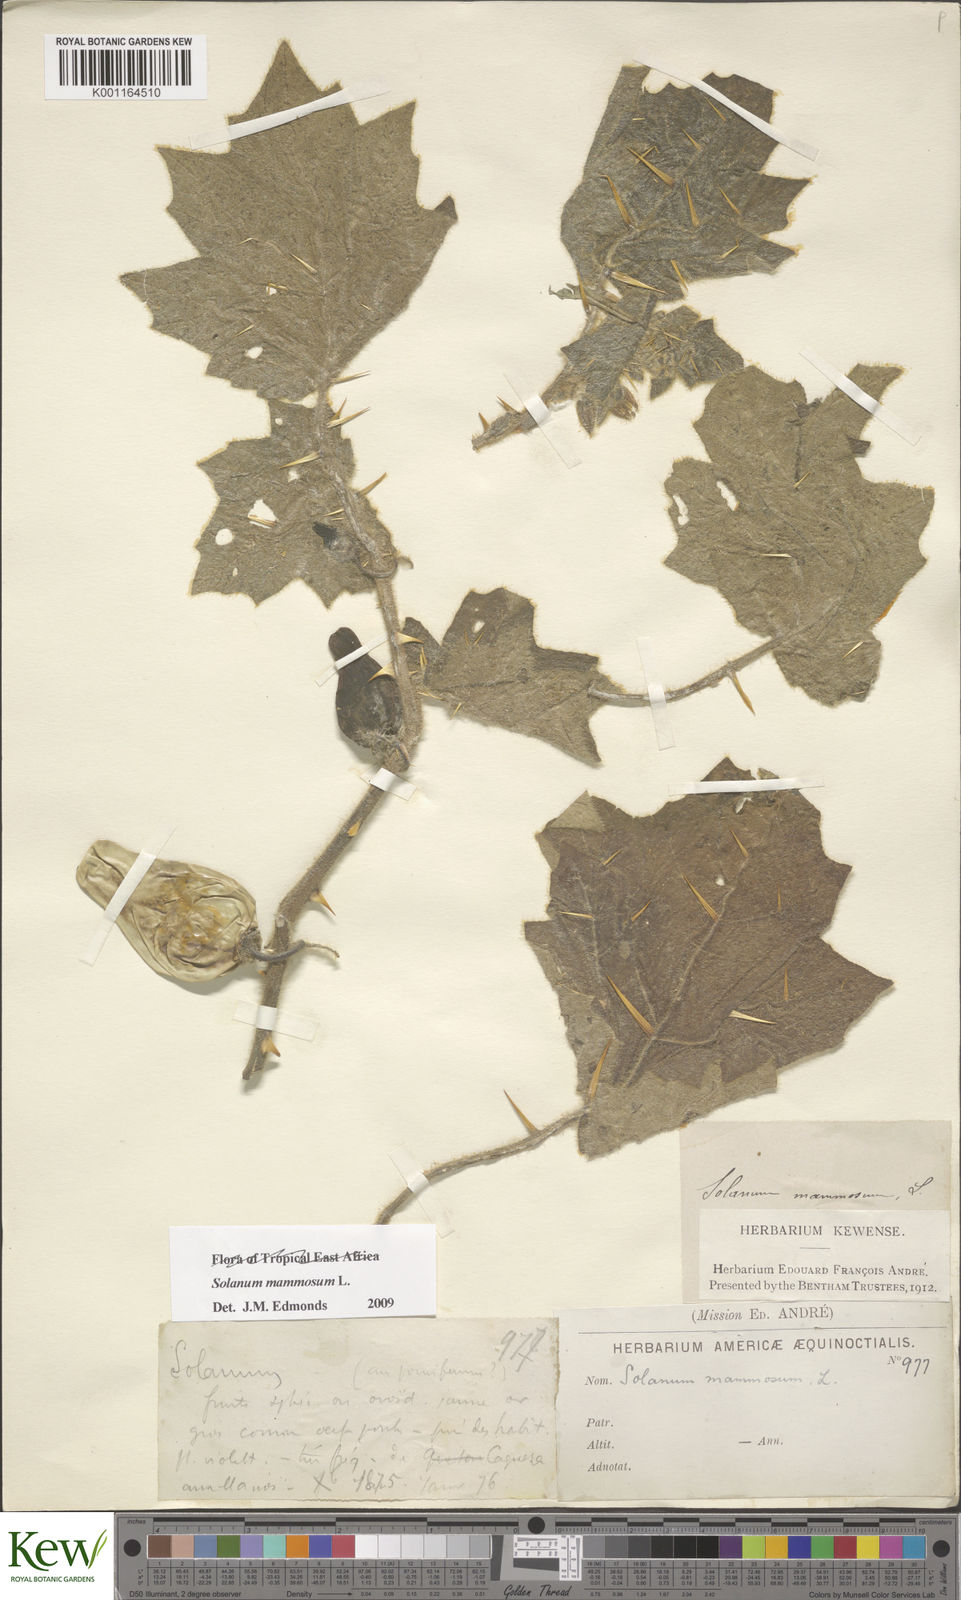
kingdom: Plantae
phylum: Tracheophyta
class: Magnoliopsida
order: Solanales
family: Solanaceae
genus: Solanum
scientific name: Solanum mammosum
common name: Nipple fruit
